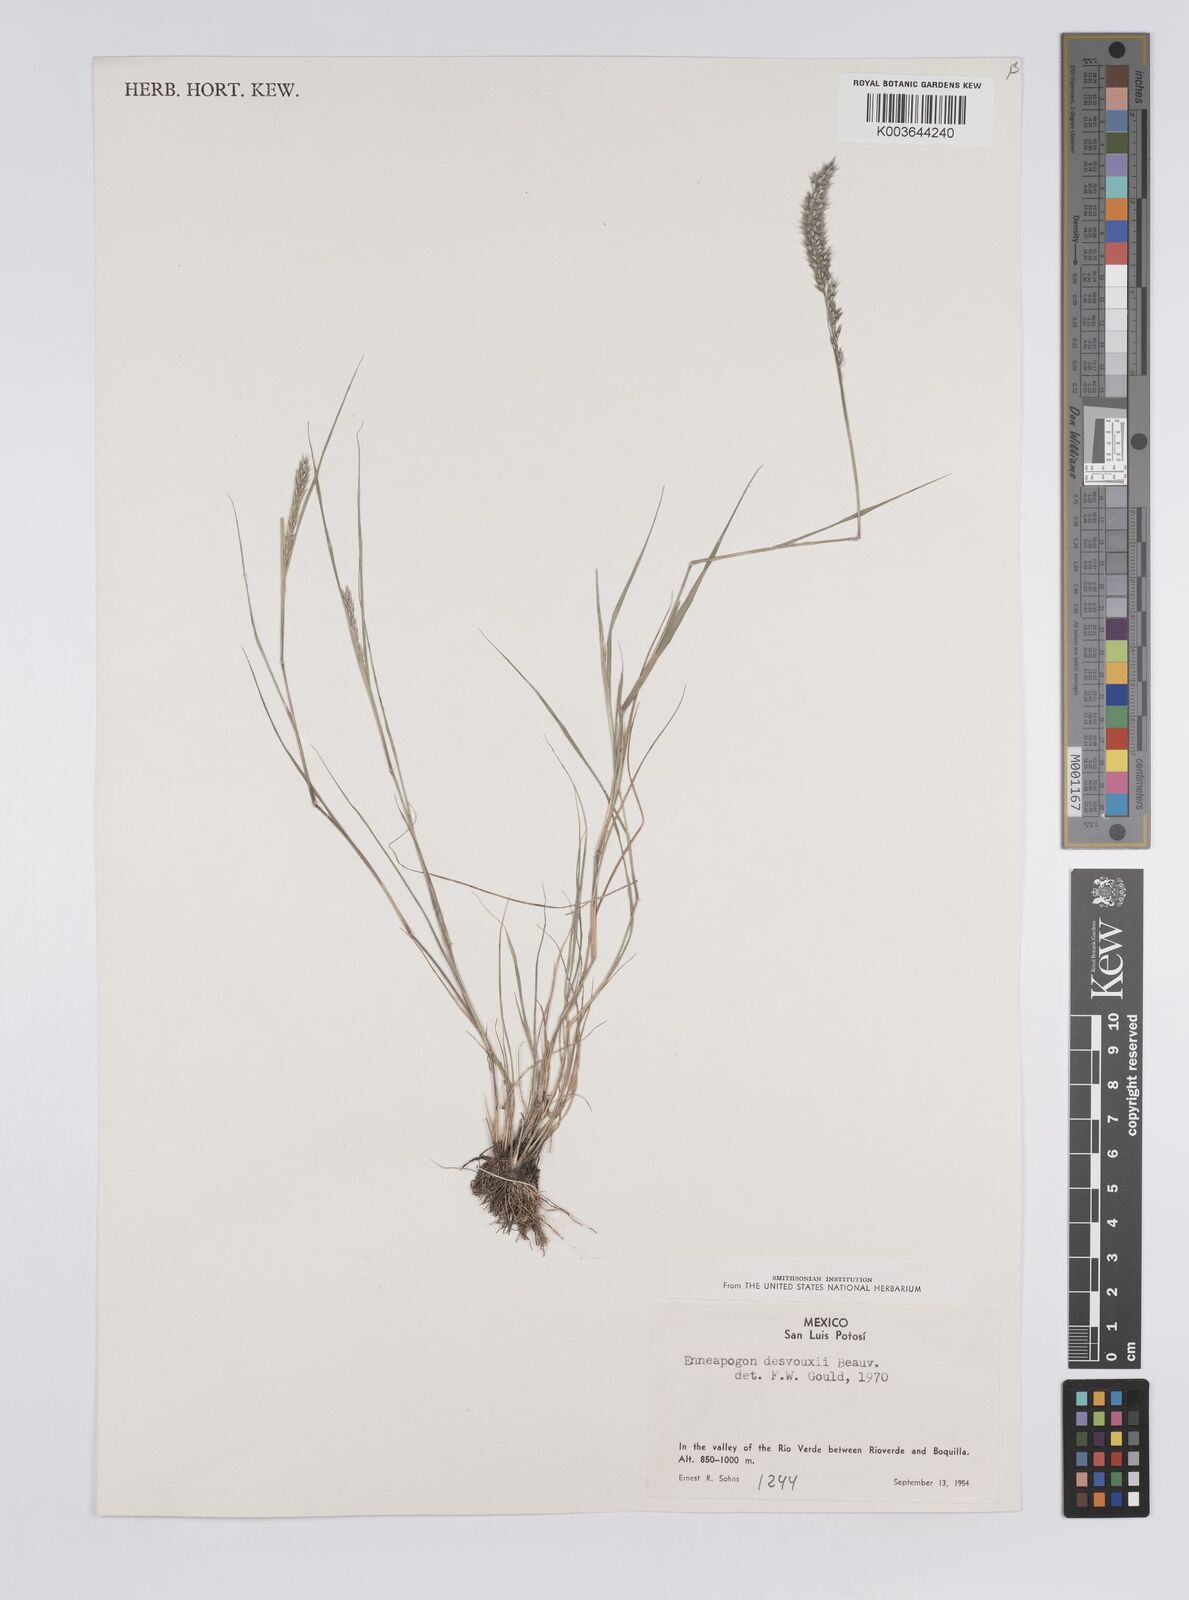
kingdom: Plantae
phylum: Tracheophyta
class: Liliopsida
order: Poales
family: Poaceae
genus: Enneapogon
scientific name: Enneapogon desvauxii
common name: Feather pappus grass
